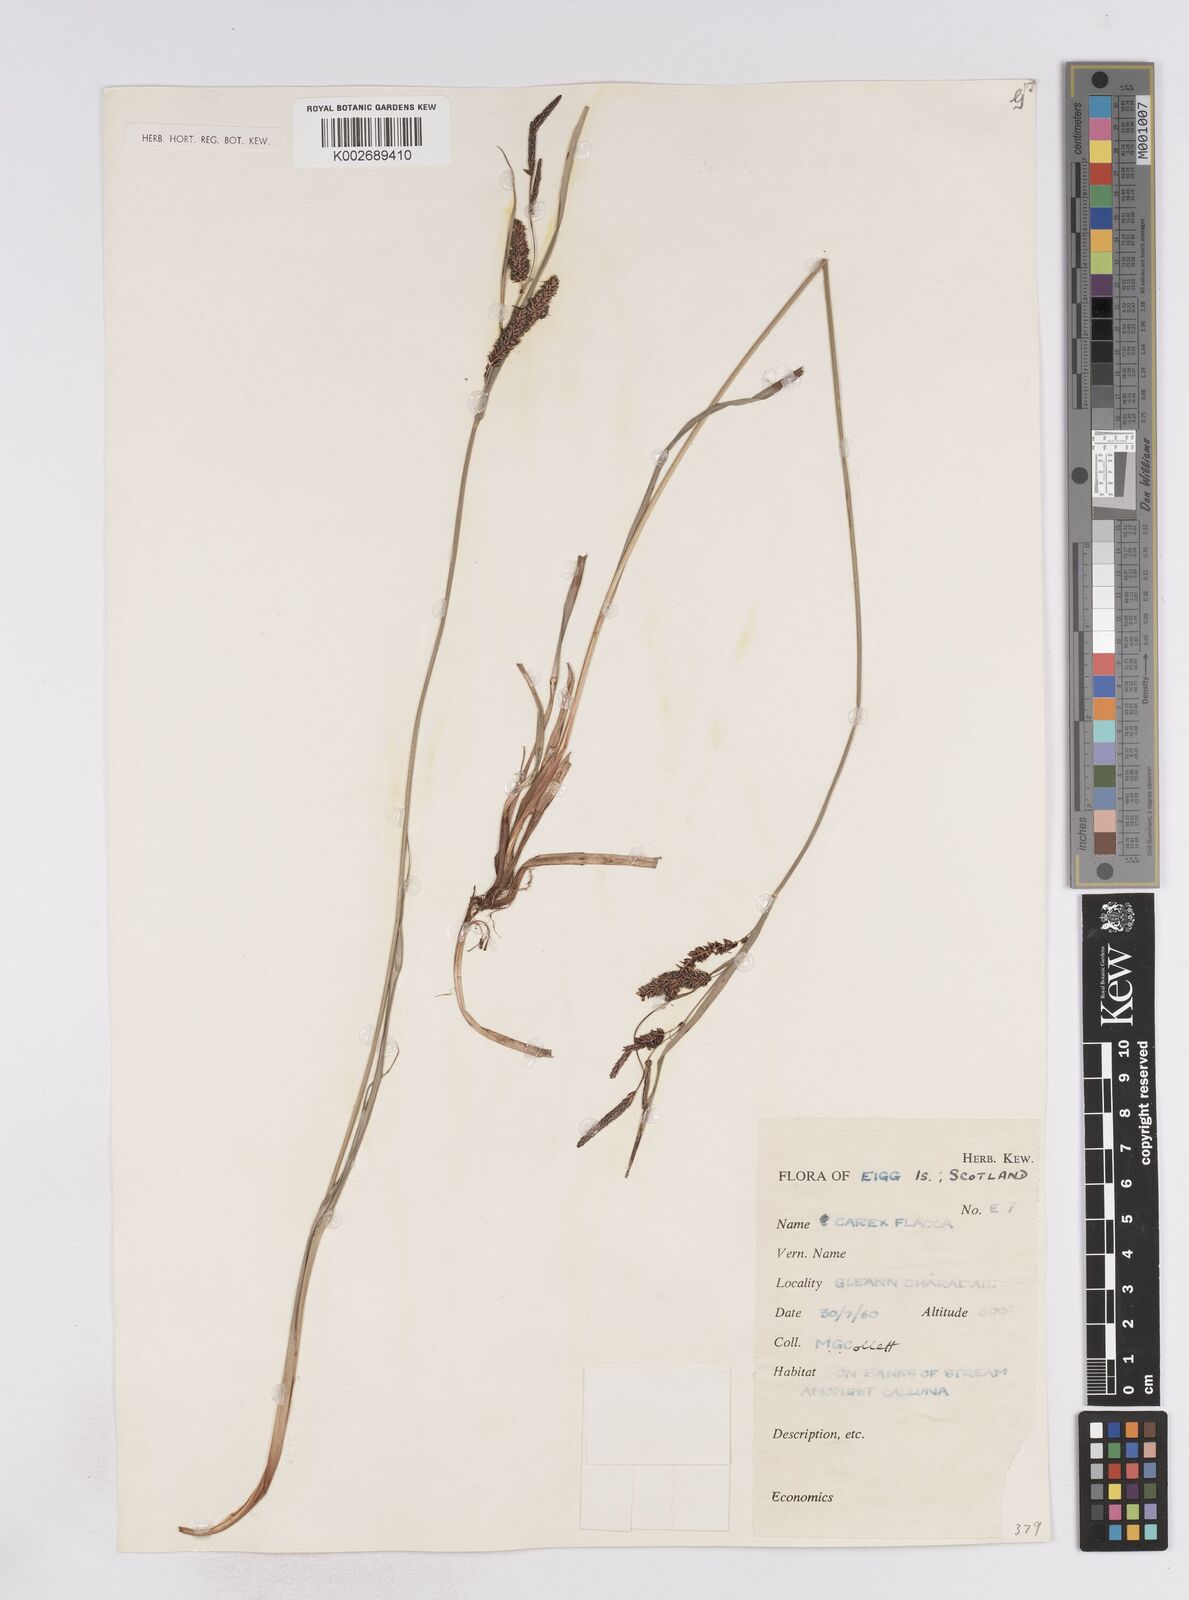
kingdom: Plantae
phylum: Tracheophyta
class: Liliopsida
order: Poales
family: Cyperaceae
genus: Carex
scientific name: Carex flacca
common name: Glaucous sedge
